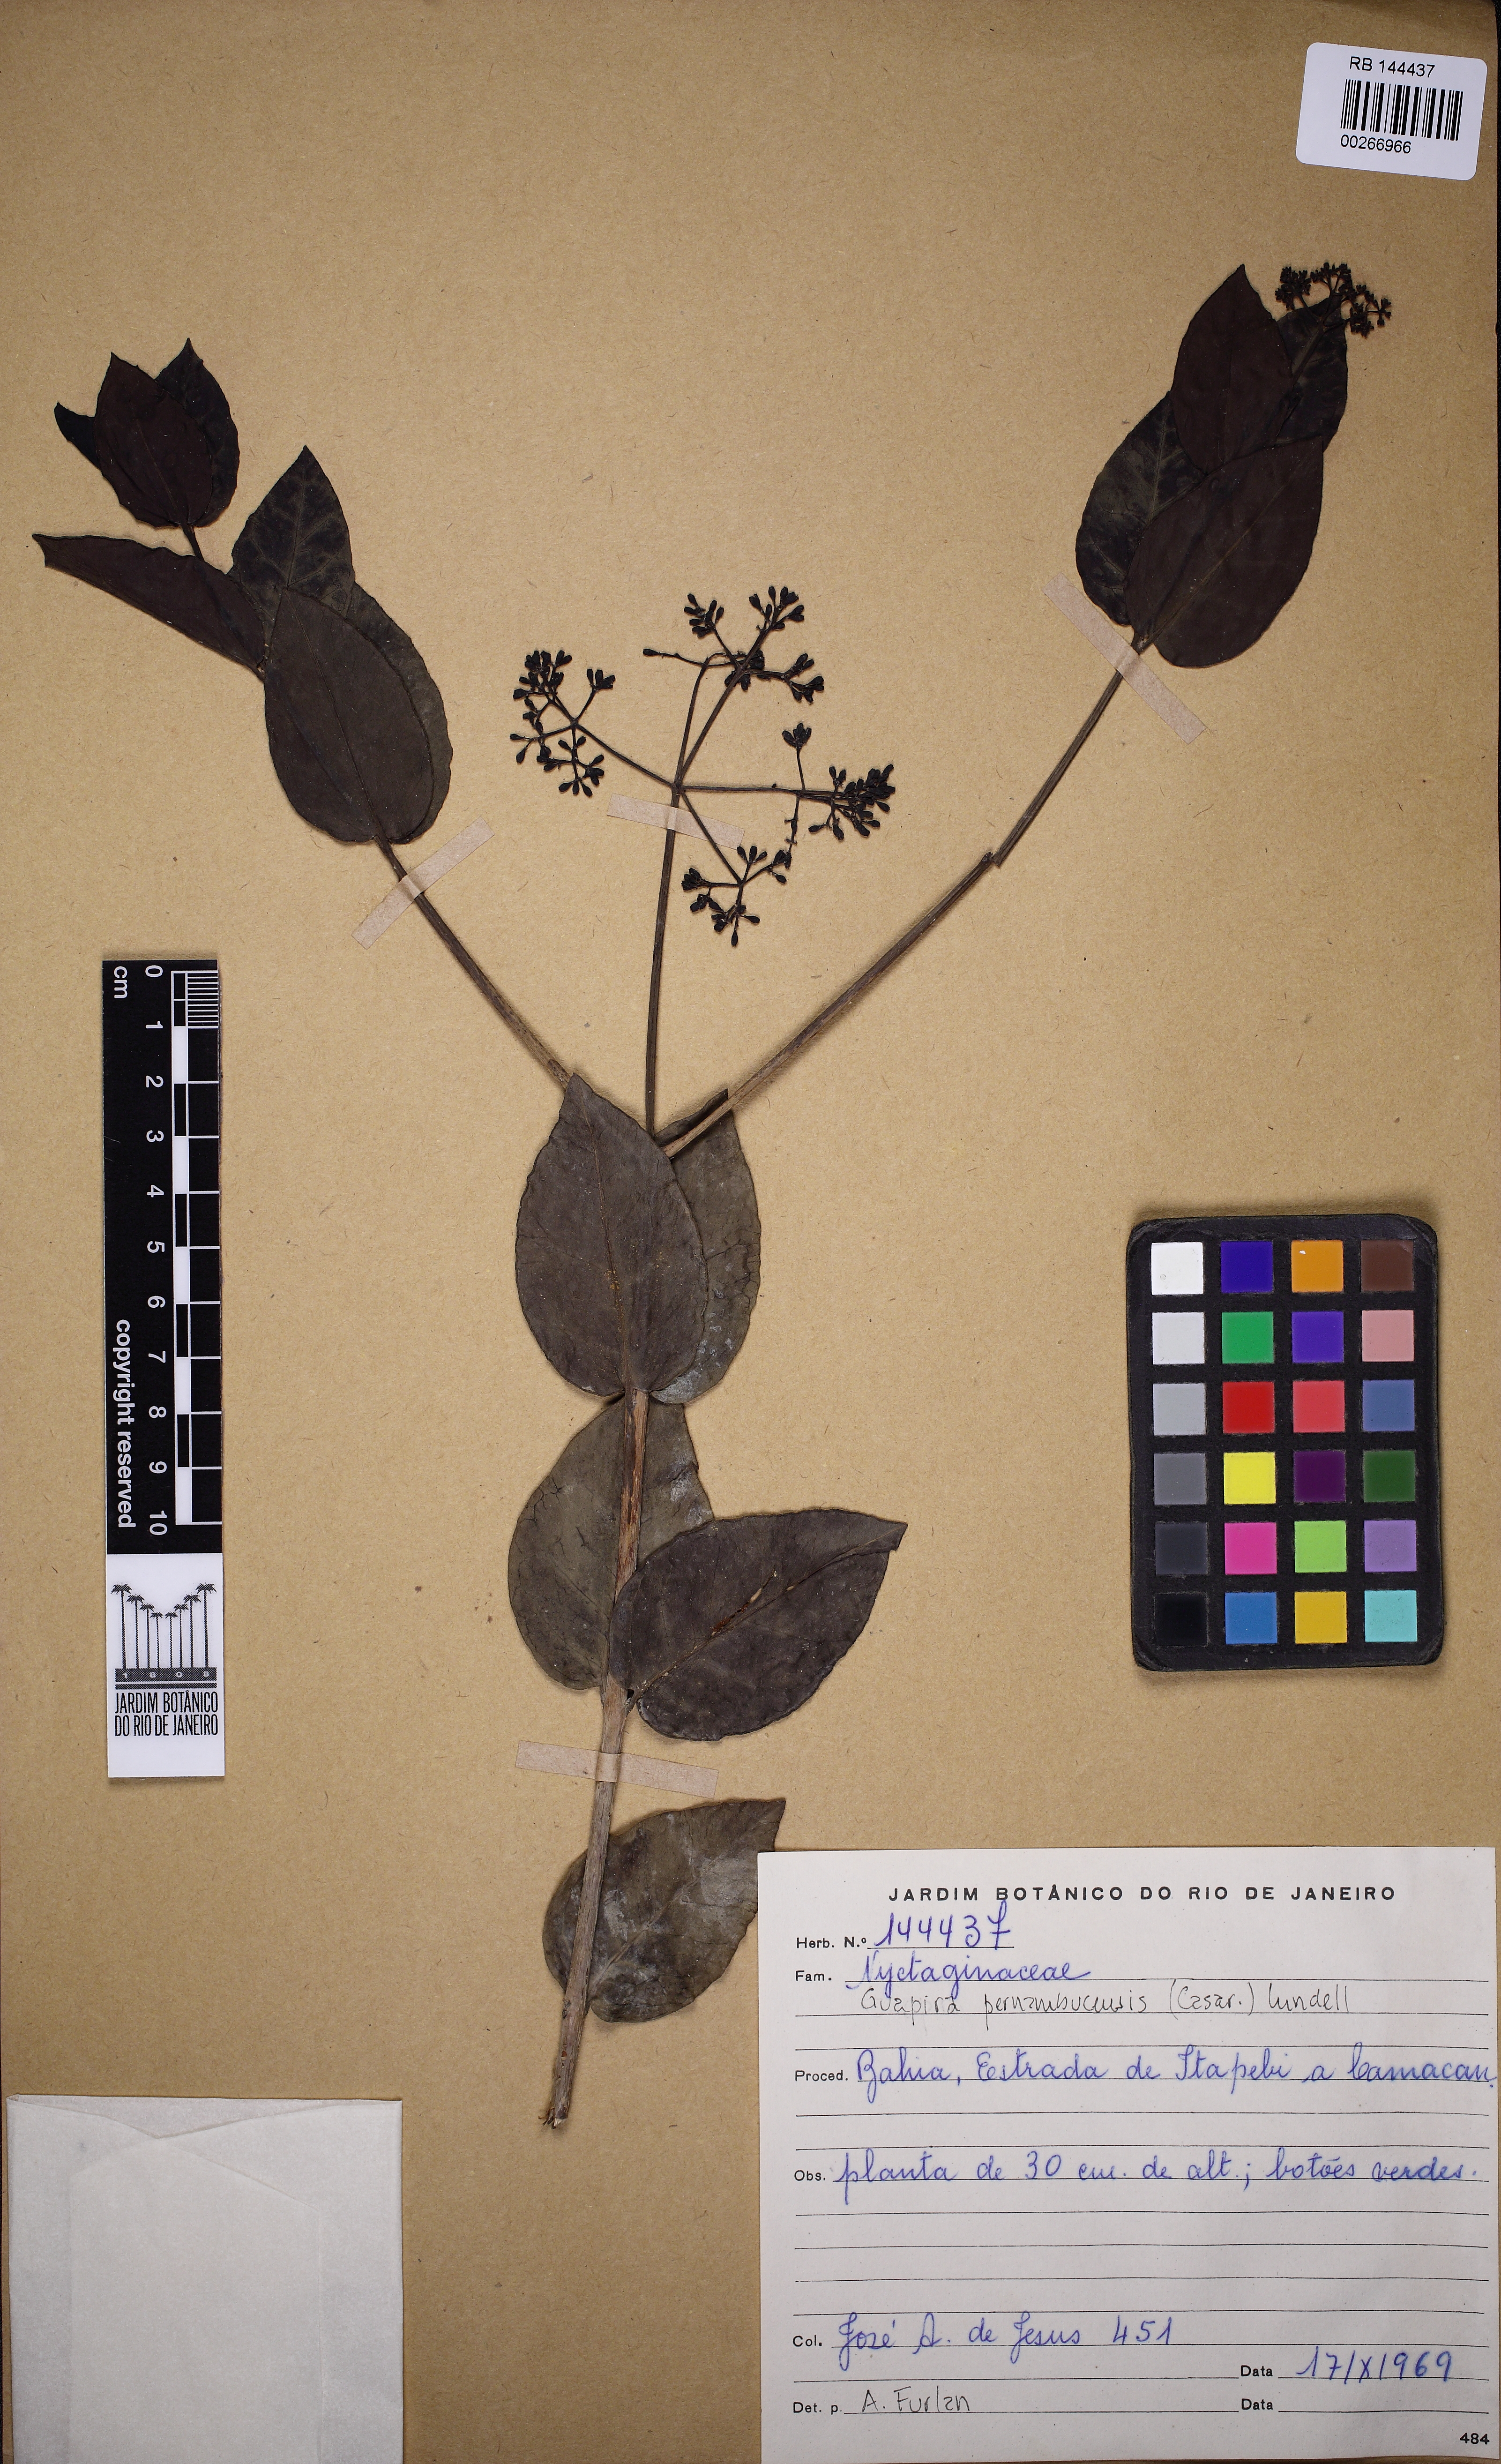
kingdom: Plantae
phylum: Tracheophyta
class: Magnoliopsida
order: Caryophyllales
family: Nyctaginaceae
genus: Guapira
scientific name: Guapira pernambucensis
